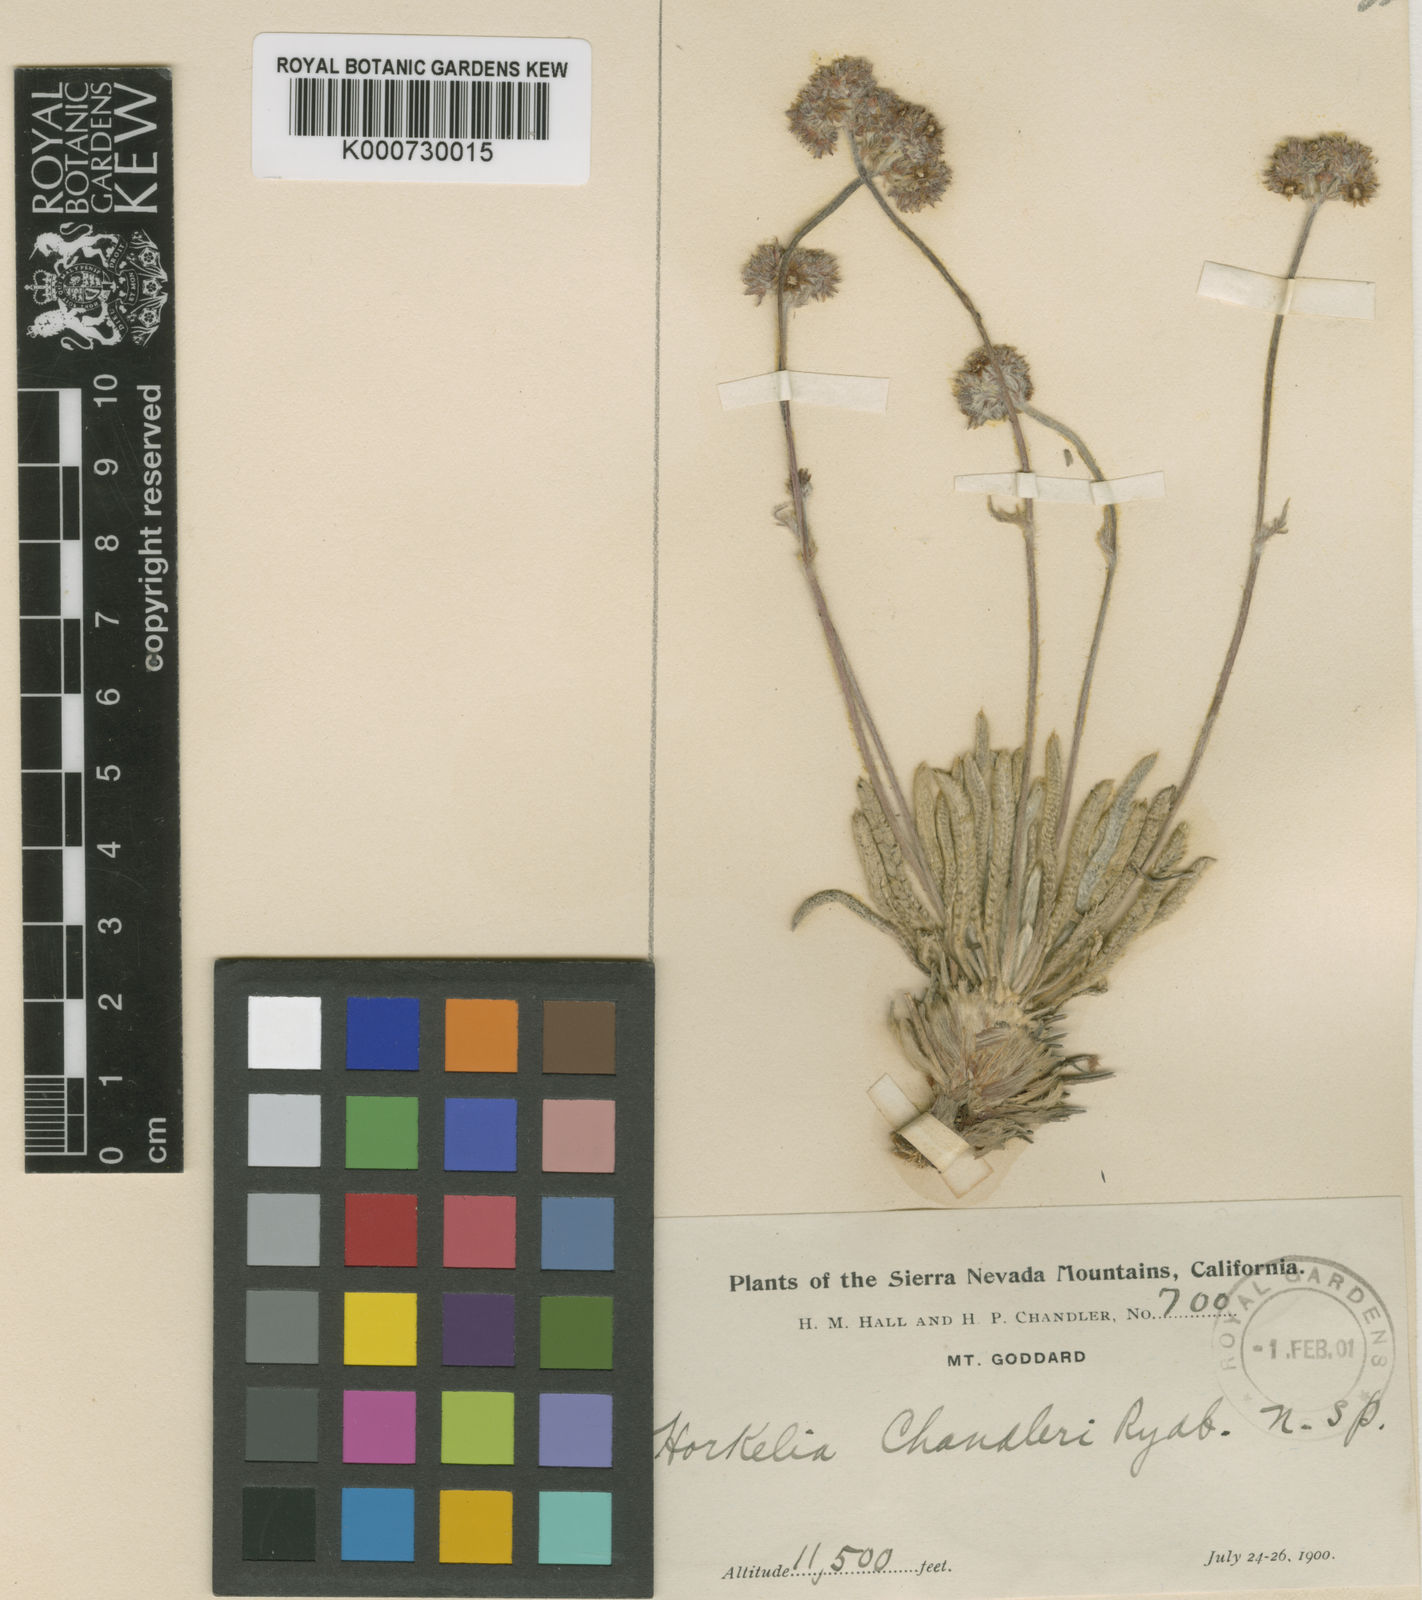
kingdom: Plantae
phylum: Tracheophyta
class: Magnoliopsida
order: Rosales
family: Rosaceae
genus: Potentilla
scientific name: Potentilla muirii
